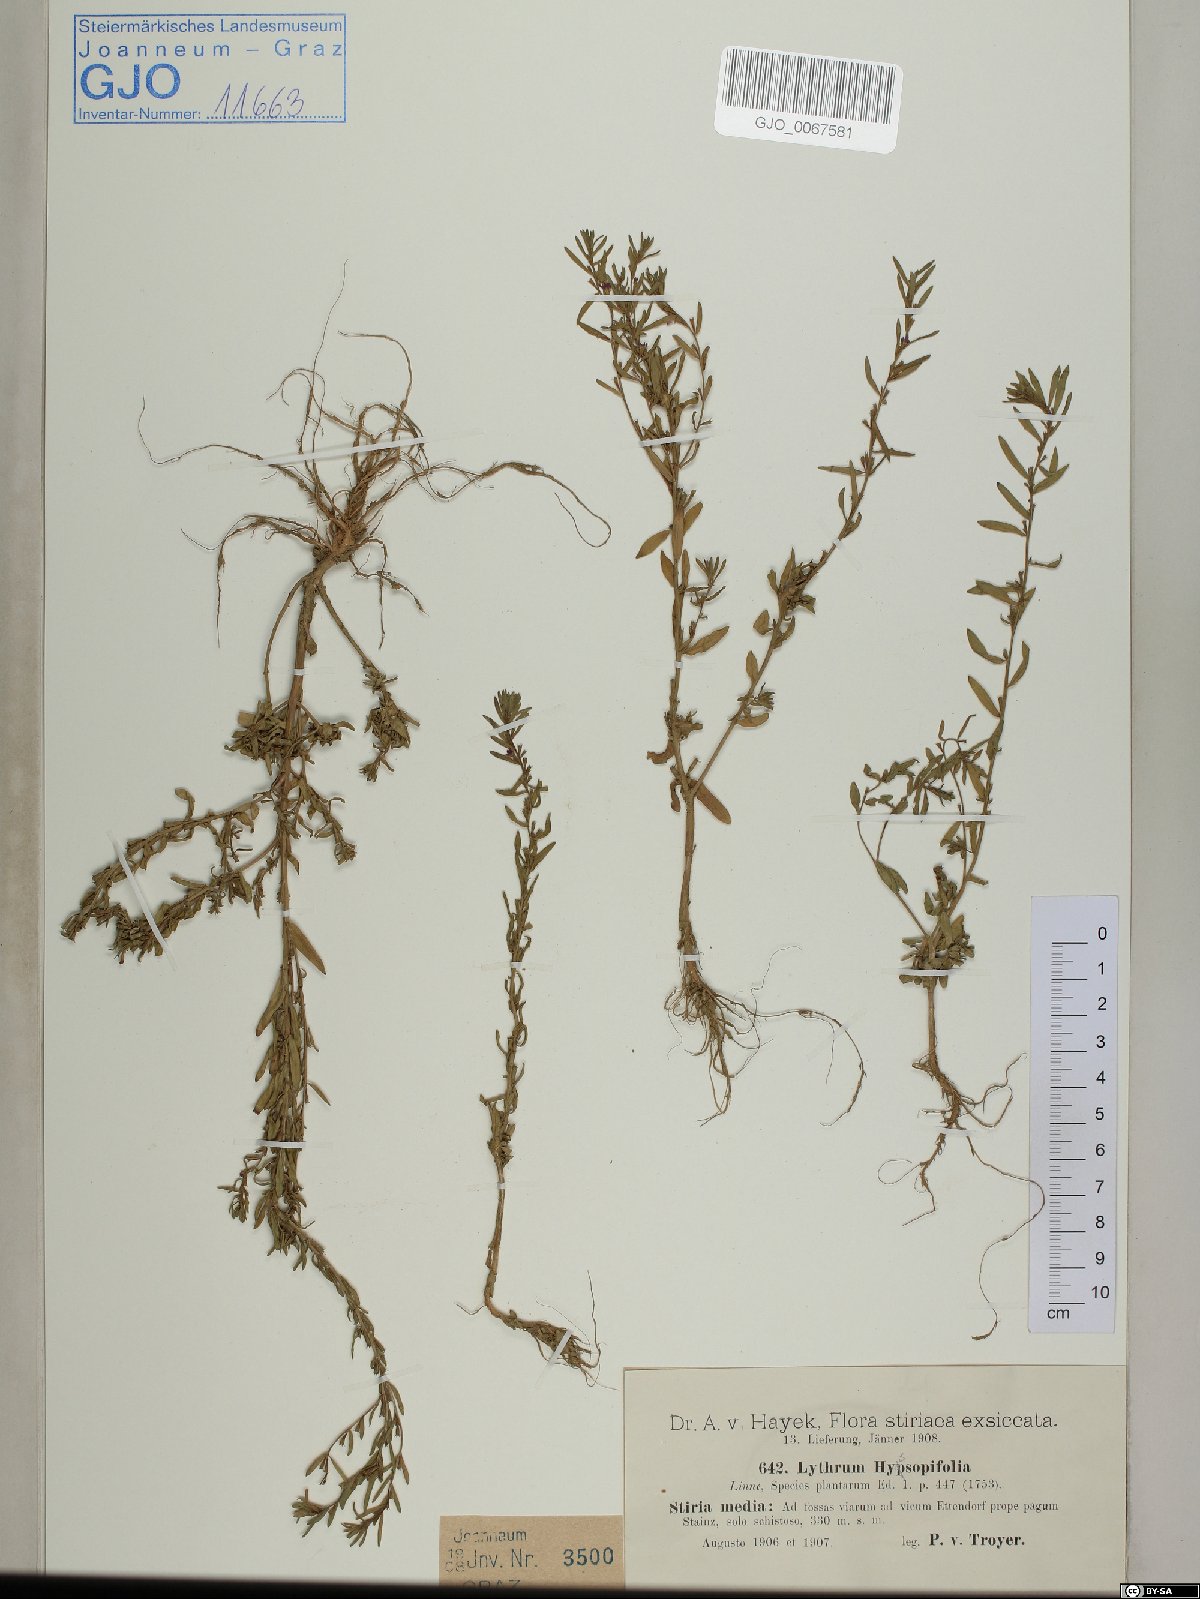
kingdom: Plantae
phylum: Tracheophyta
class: Magnoliopsida
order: Myrtales
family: Lythraceae
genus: Lythrum
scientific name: Lythrum hyssopifolia
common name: Grass-poly
